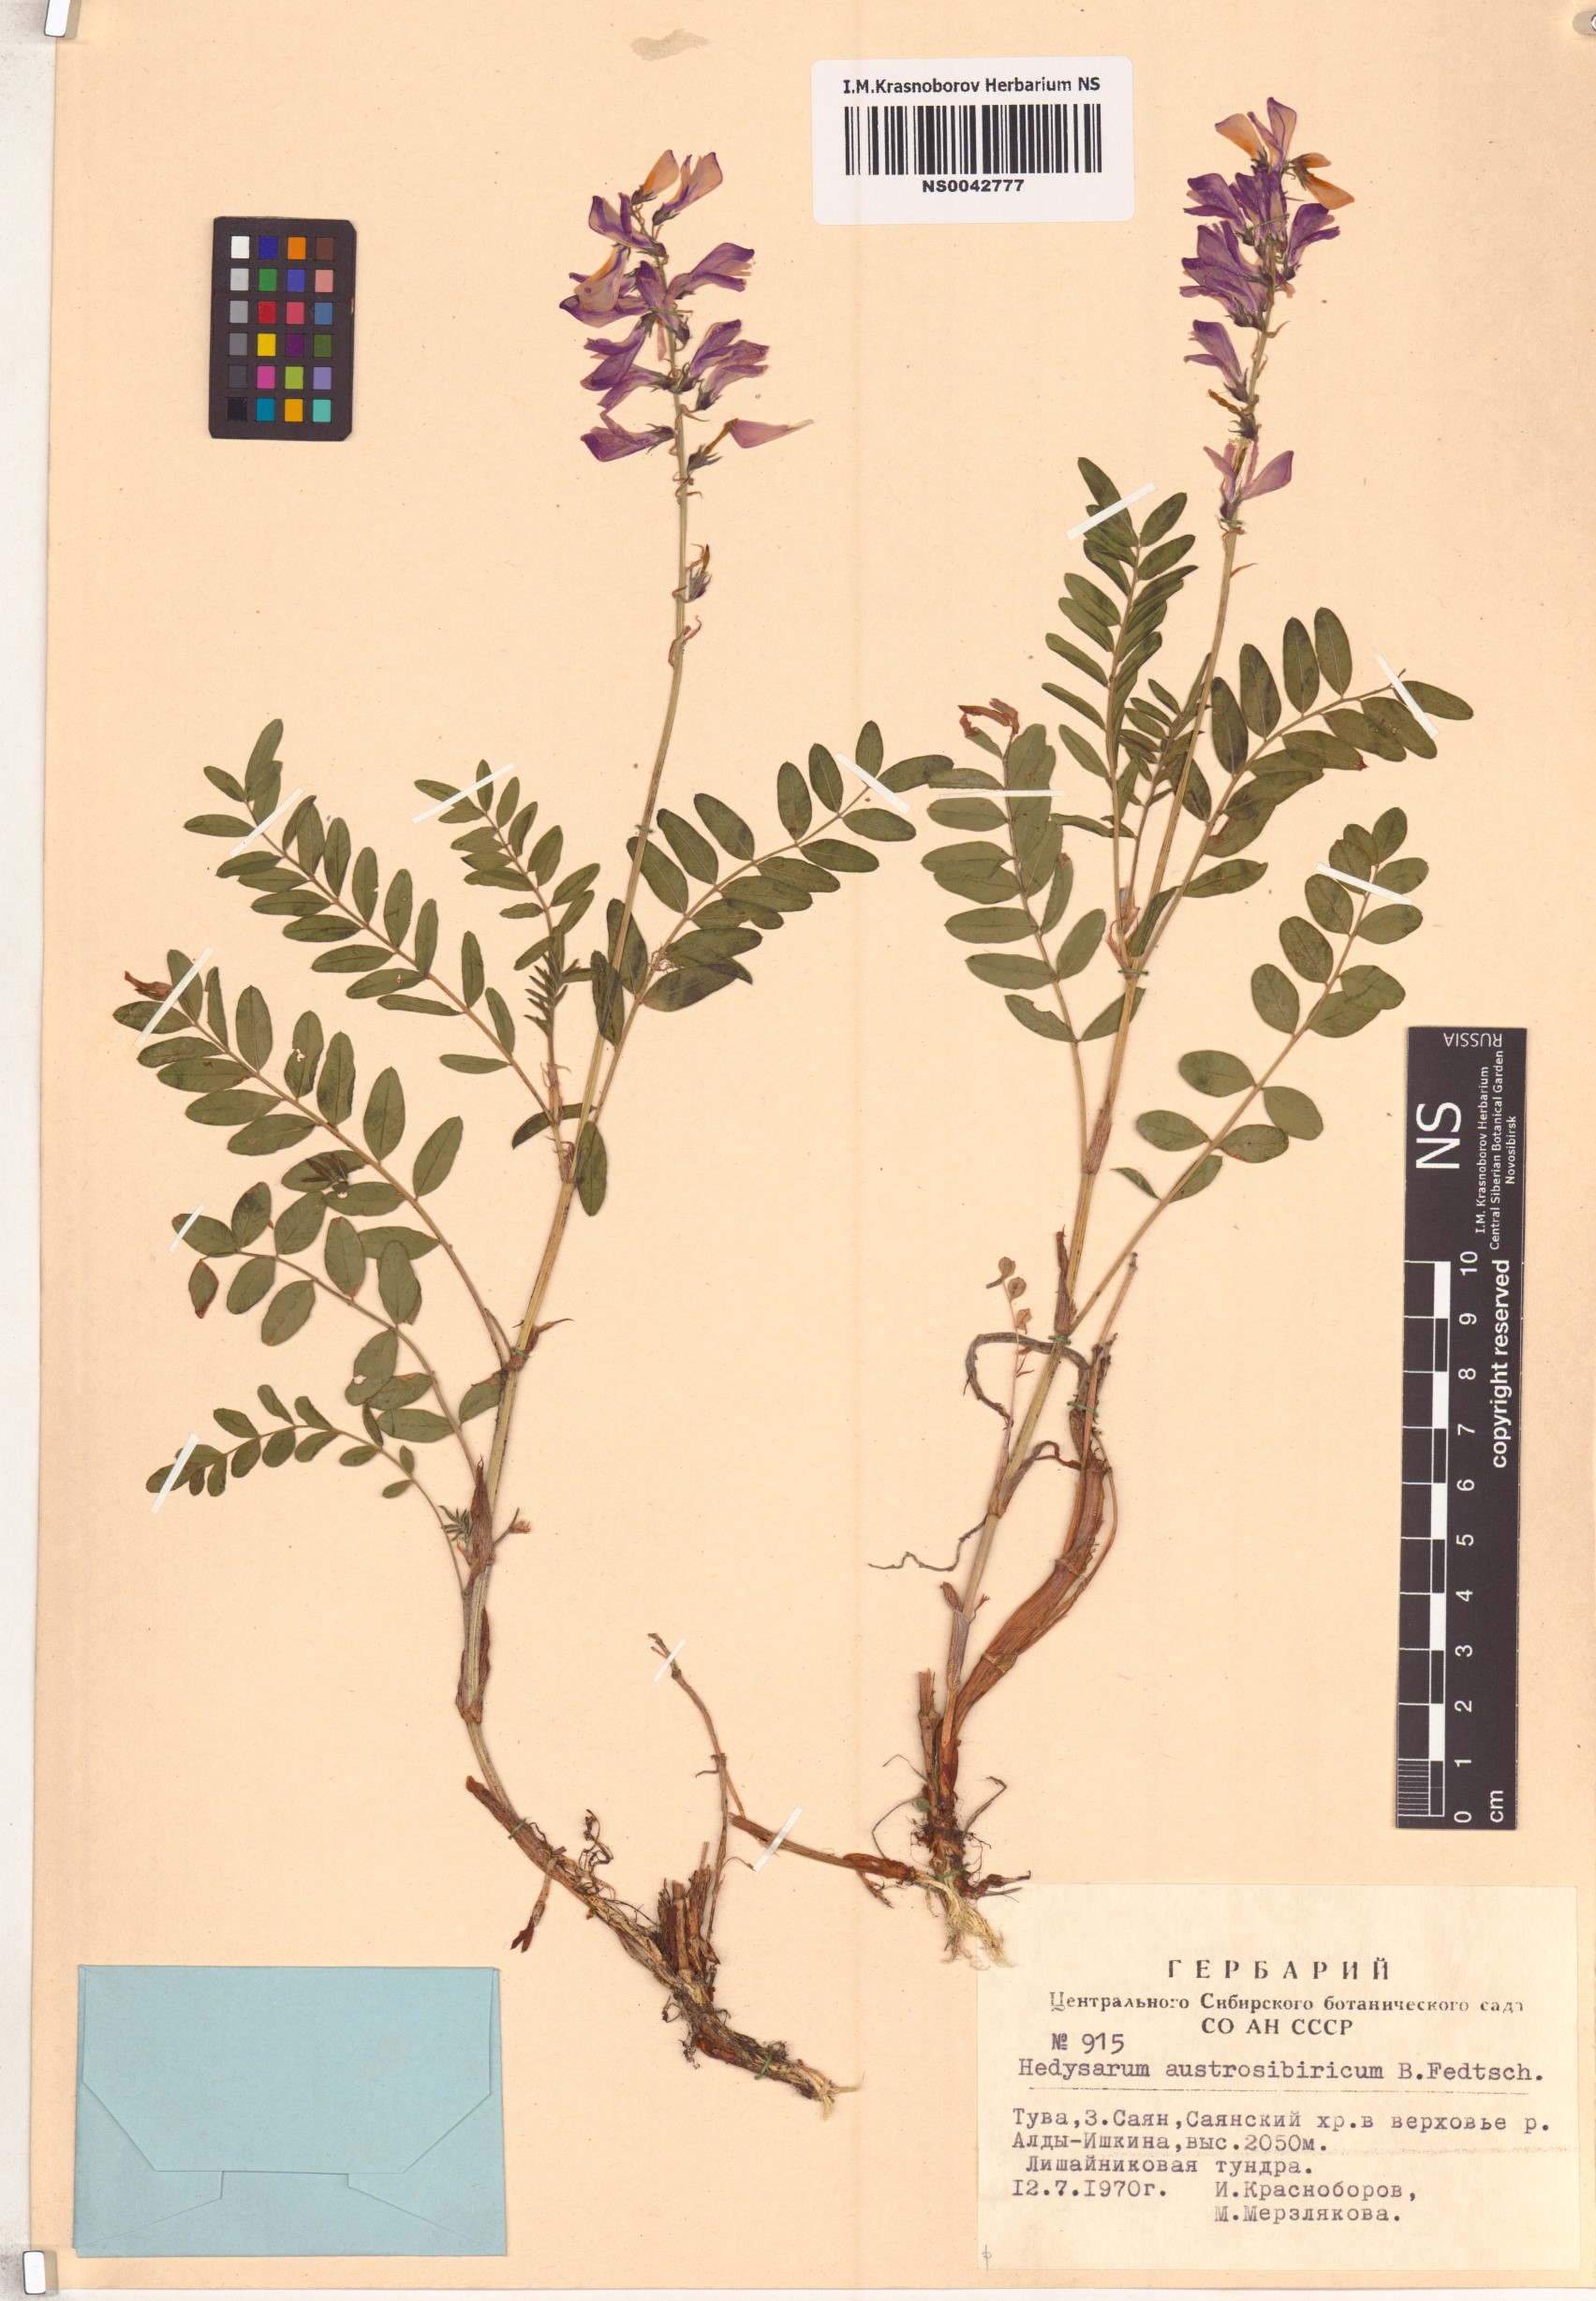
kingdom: Plantae
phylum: Tracheophyta
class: Magnoliopsida
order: Fabales
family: Fabaceae
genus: Hedysarum
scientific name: Hedysarum neglectum
